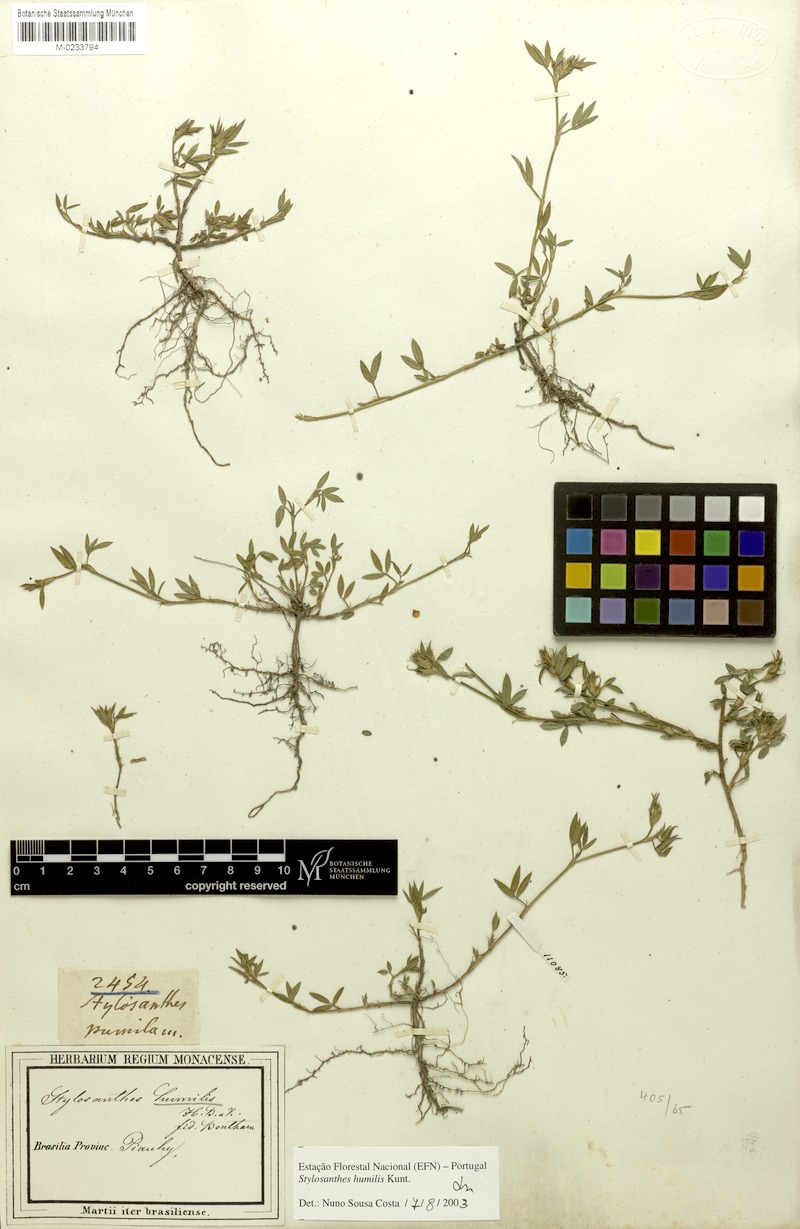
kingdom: Plantae
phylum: Tracheophyta
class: Magnoliopsida
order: Fabales
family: Fabaceae
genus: Stylosanthes
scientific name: Stylosanthes humilis
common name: Townsville stylo
